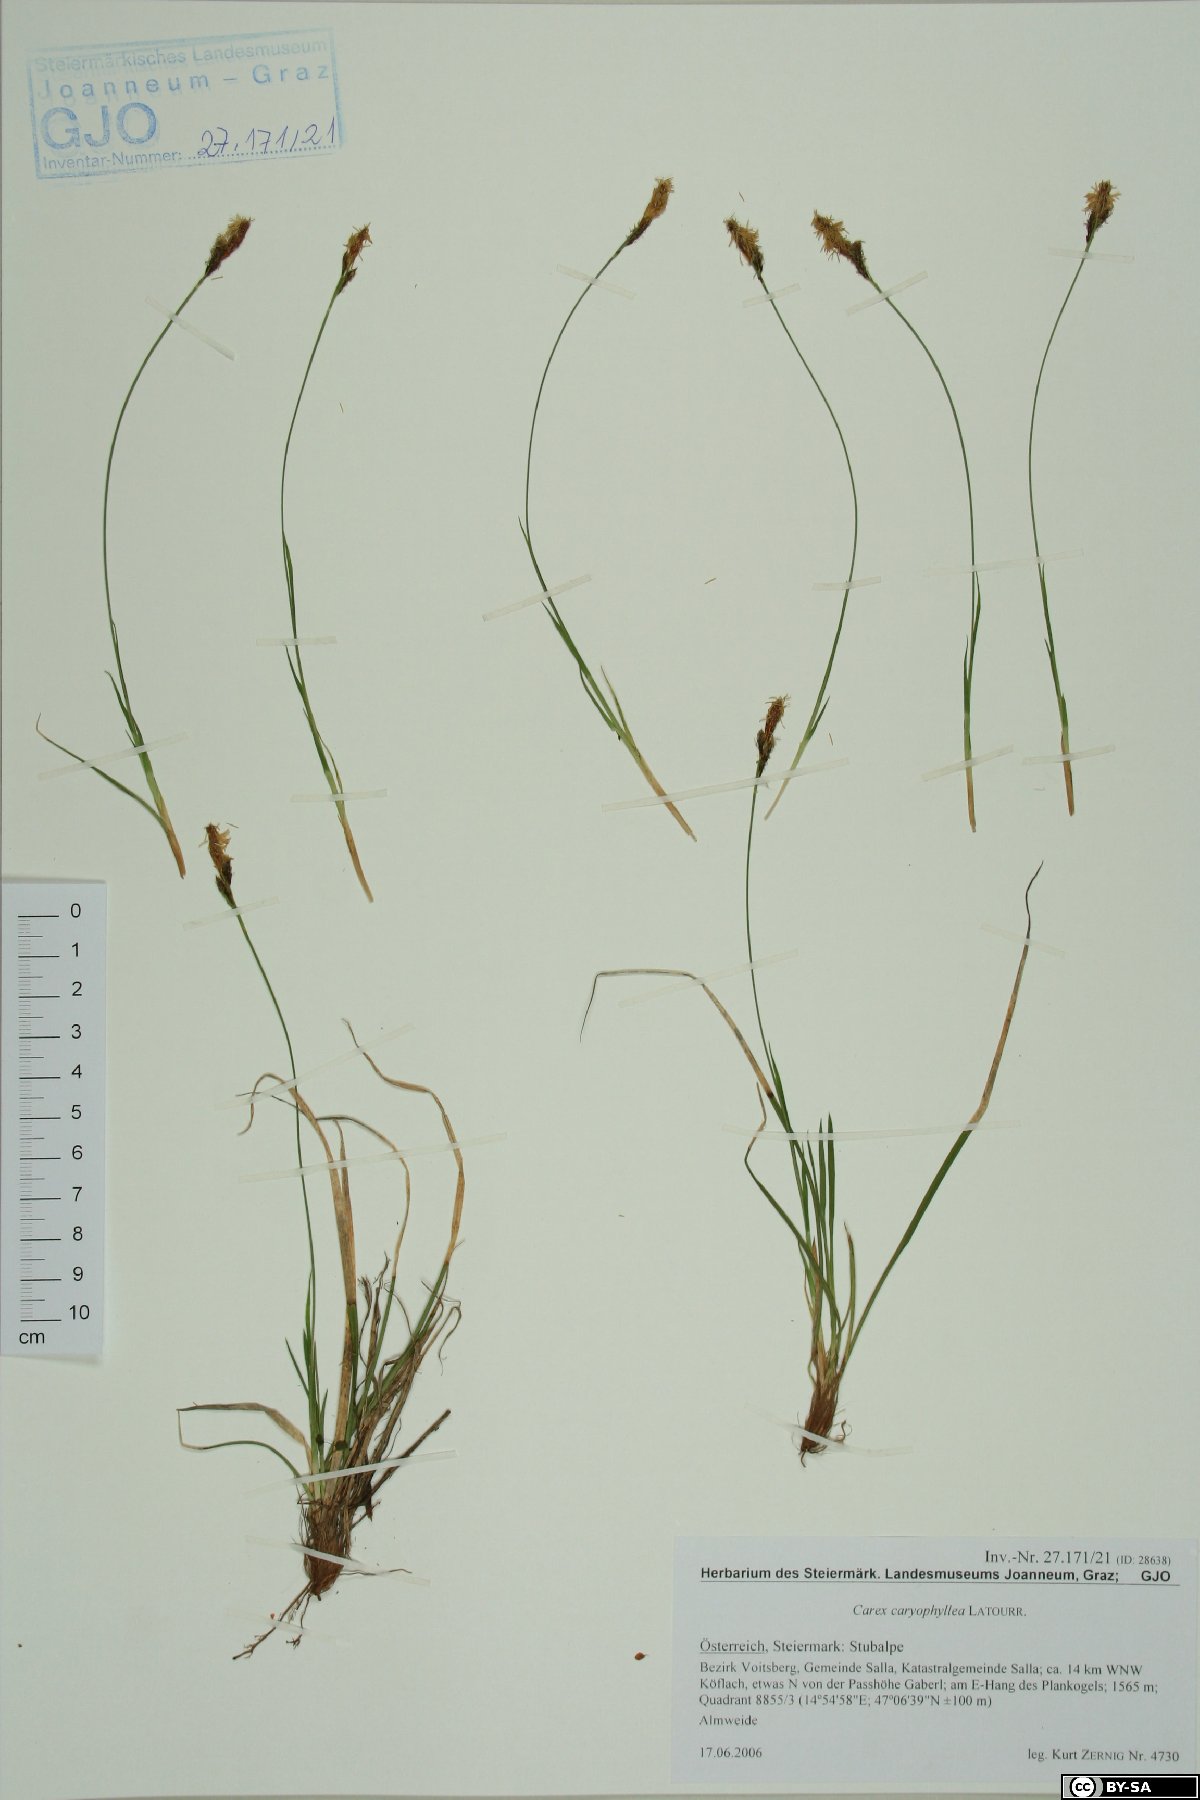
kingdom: Plantae
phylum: Tracheophyta
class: Liliopsida
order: Poales
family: Cyperaceae
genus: Carex
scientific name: Carex caryophyllea
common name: Spring sedge
